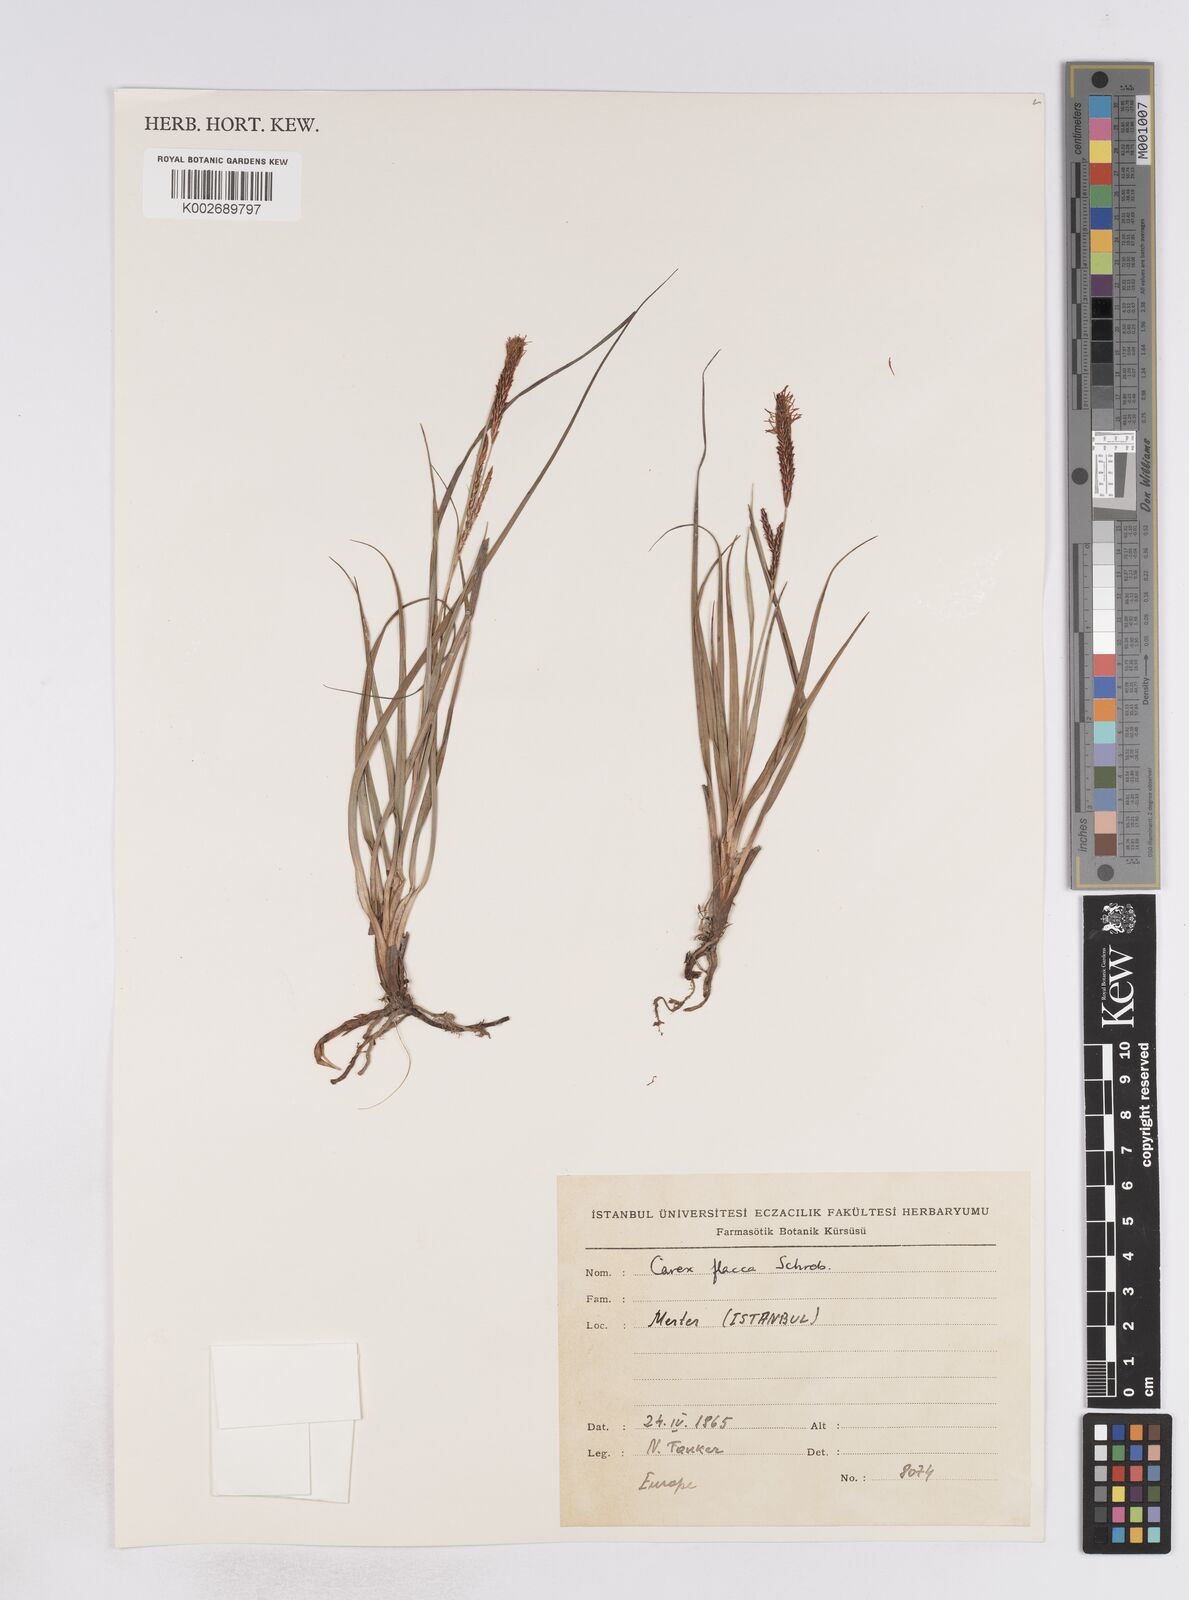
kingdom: Plantae
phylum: Tracheophyta
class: Liliopsida
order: Poales
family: Cyperaceae
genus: Carex
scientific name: Carex flacca
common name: Glaucous sedge
